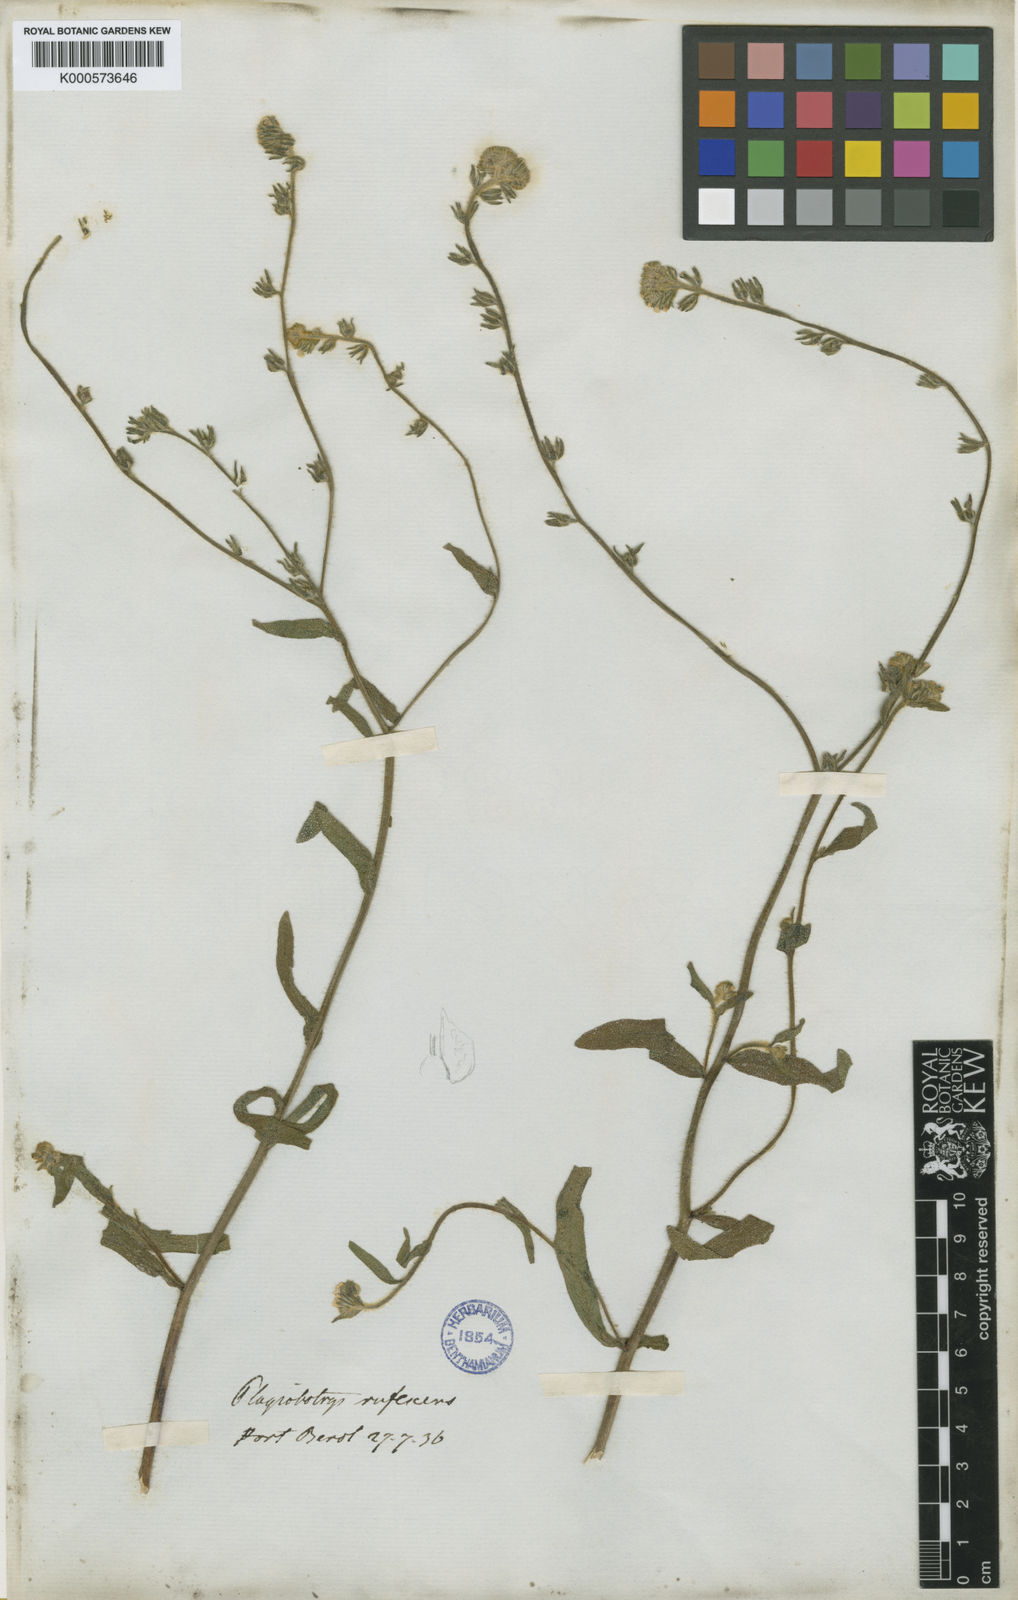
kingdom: Plantae
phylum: Tracheophyta
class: Magnoliopsida
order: Boraginales
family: Boraginaceae
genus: Plagiobothrys
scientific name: Plagiobothrys fulvus
